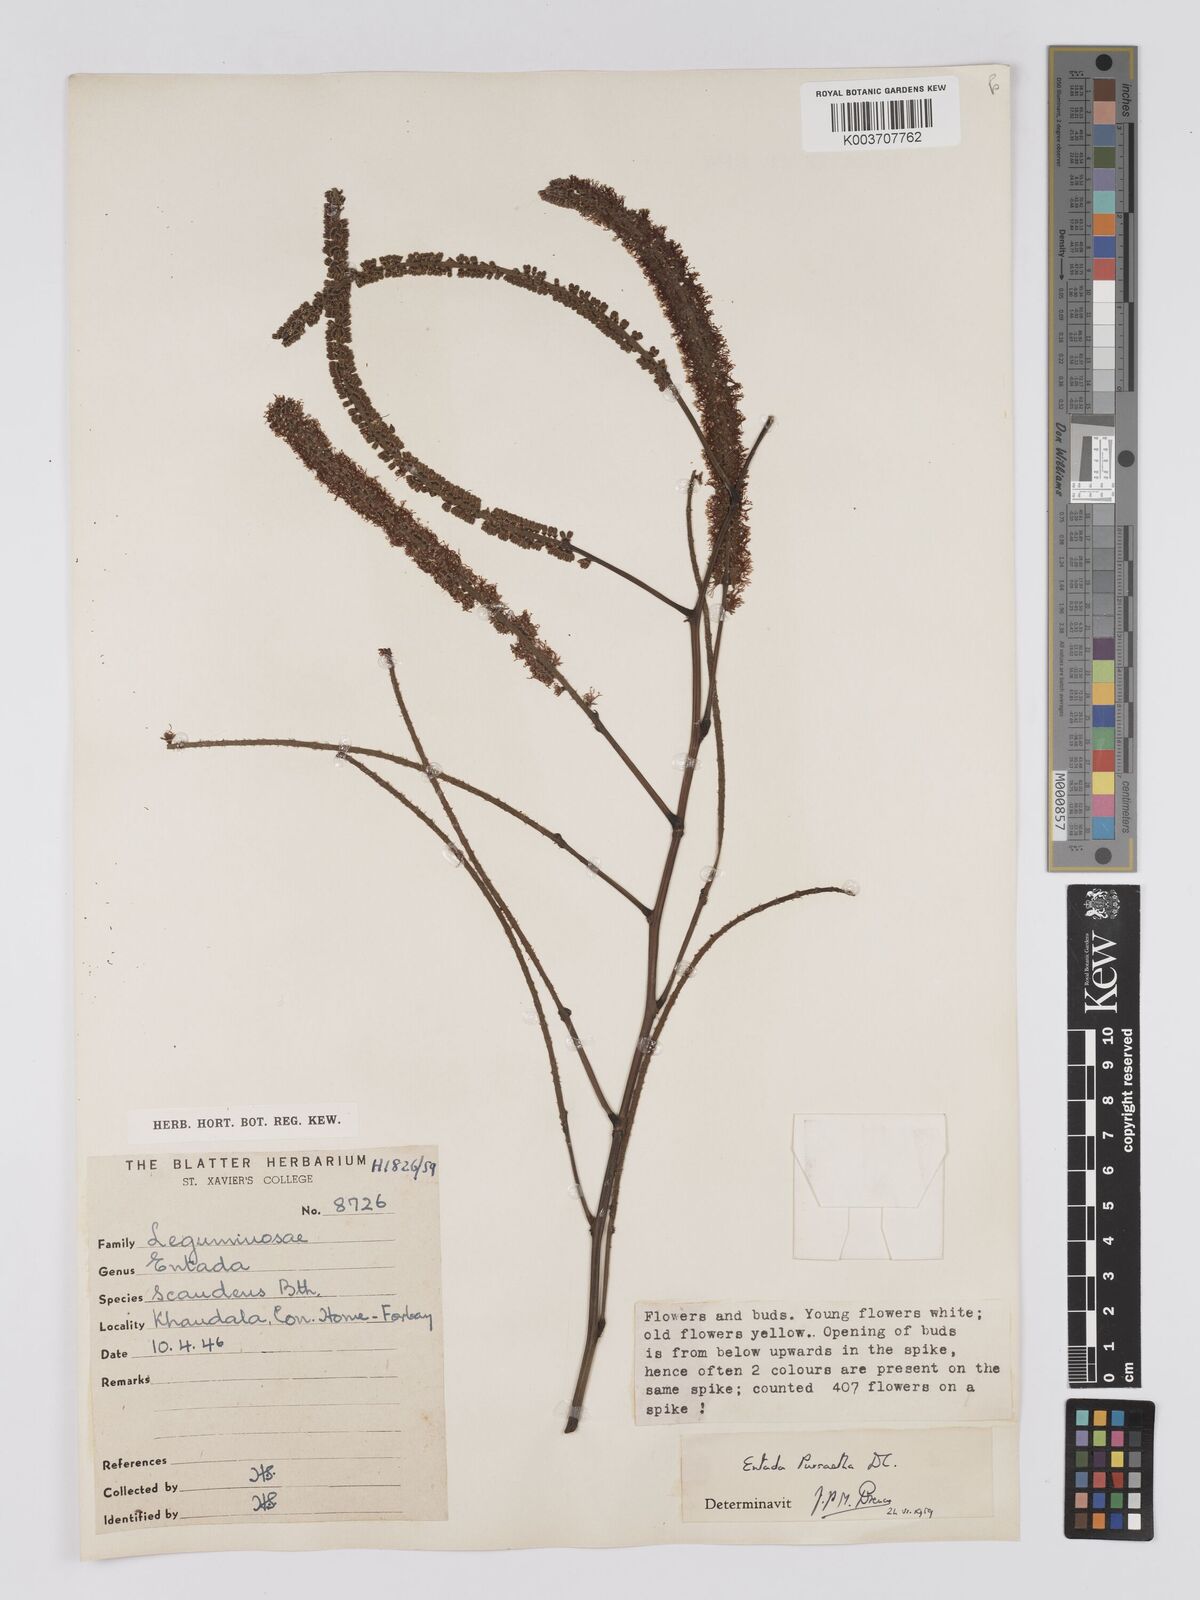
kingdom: Plantae
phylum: Tracheophyta
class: Magnoliopsida
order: Fabales
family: Fabaceae
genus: Entada
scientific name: Entada rheedei
